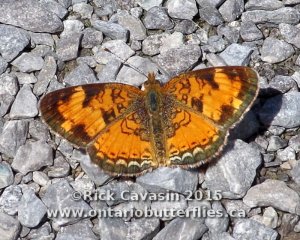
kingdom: Animalia
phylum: Arthropoda
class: Insecta
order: Lepidoptera
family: Nymphalidae
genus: Phyciodes
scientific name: Phyciodes tharos
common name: Northern Crescent
